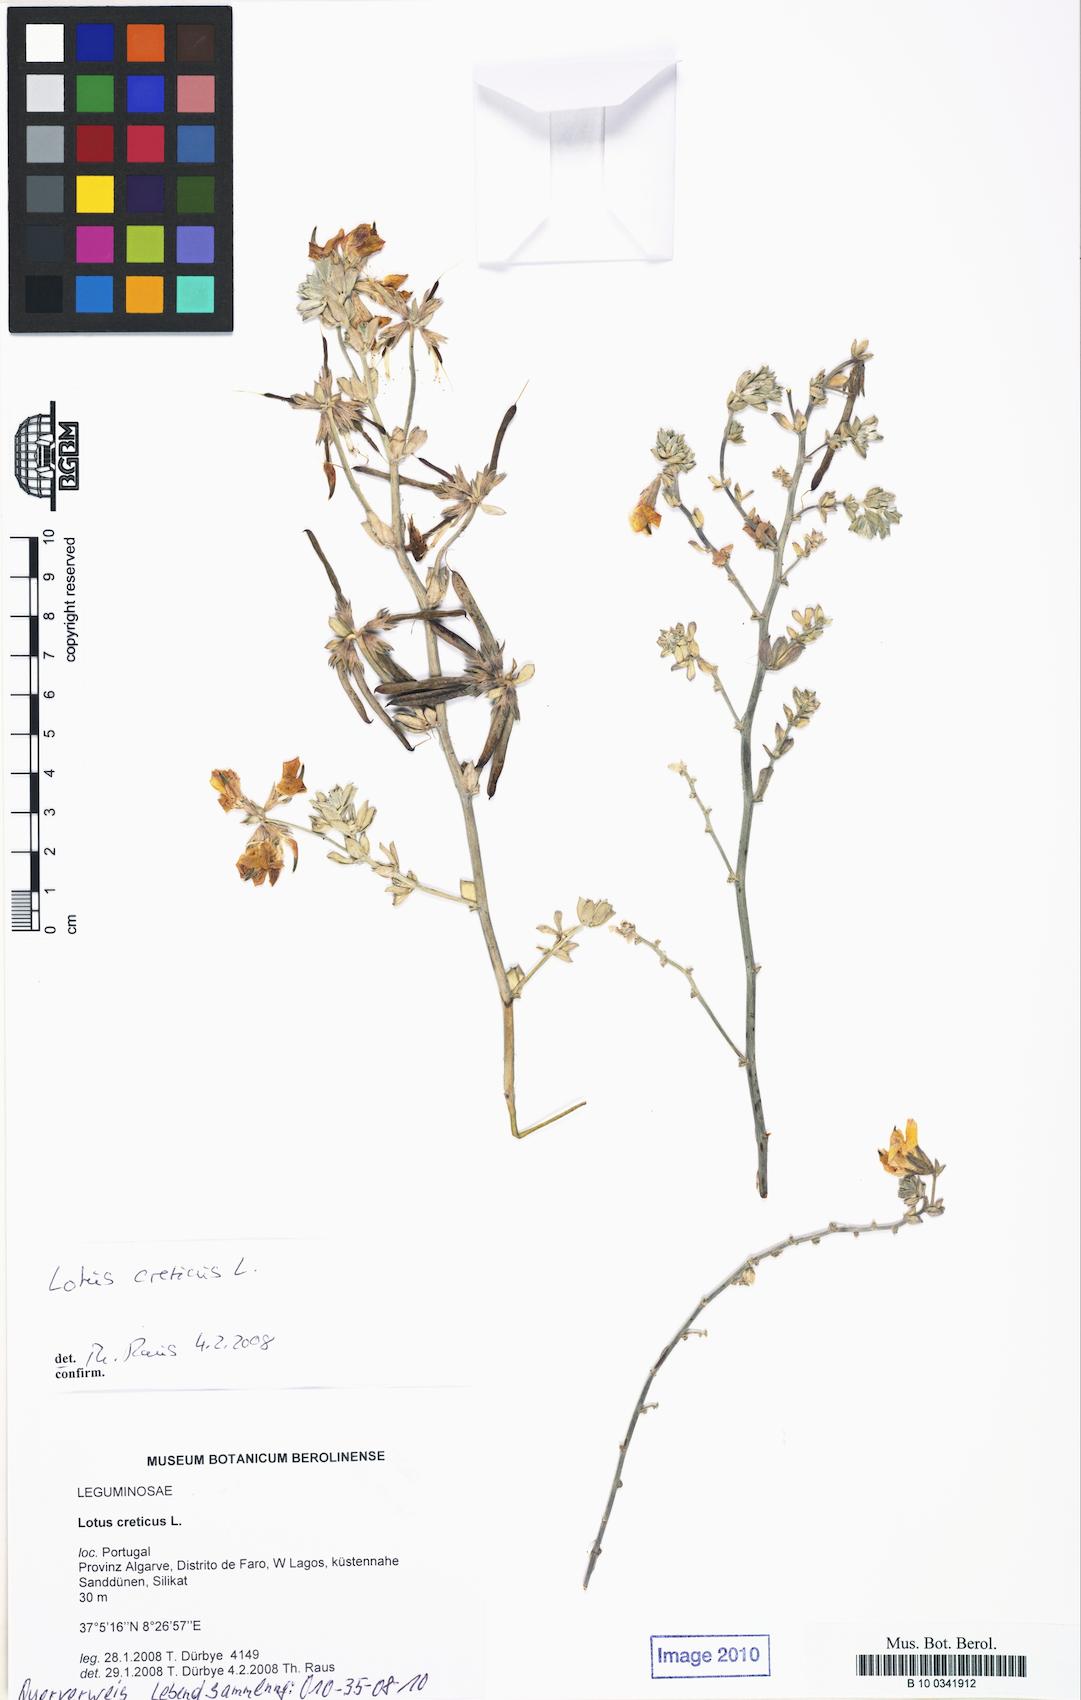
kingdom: Plantae
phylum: Tracheophyta
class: Magnoliopsida
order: Fabales
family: Fabaceae
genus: Lotus
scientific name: Lotus creticus
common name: Cretan bird's-foot trefoil
